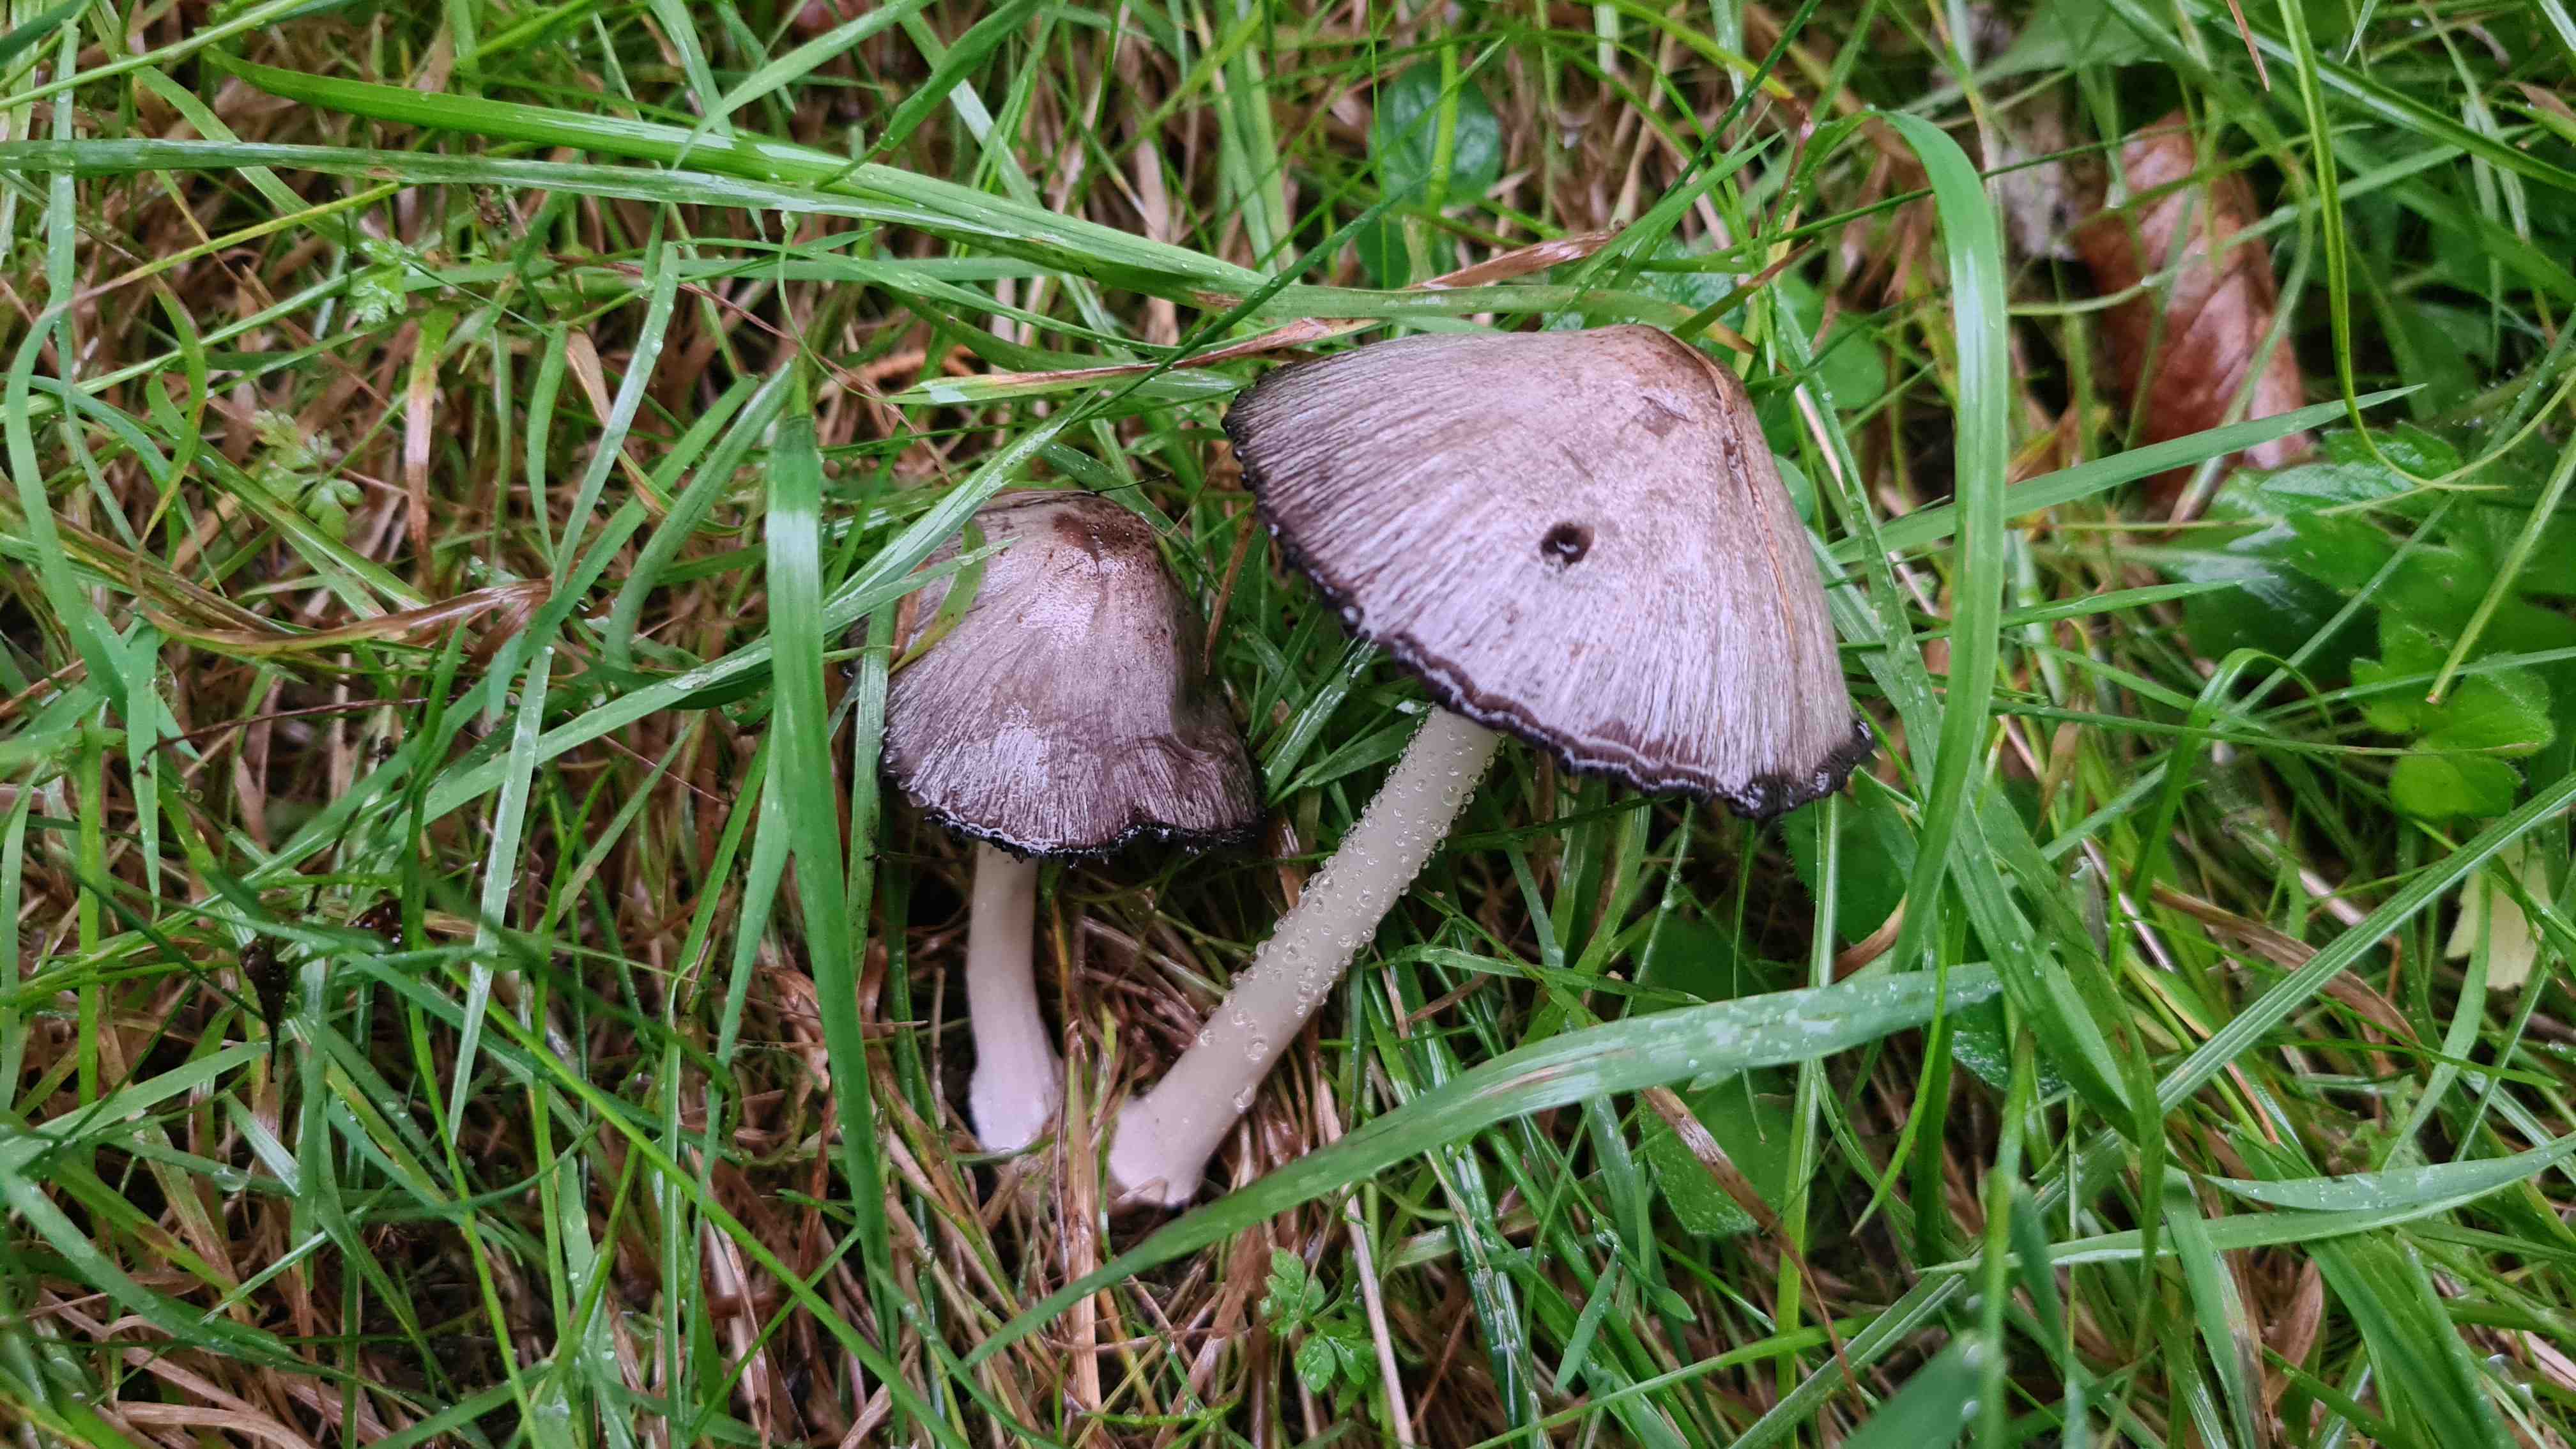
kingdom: Fungi
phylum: Basidiomycota
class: Agaricomycetes
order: Agaricales
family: Psathyrellaceae
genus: Coprinopsis
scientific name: Coprinopsis atramentaria
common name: almindelig blækhat
